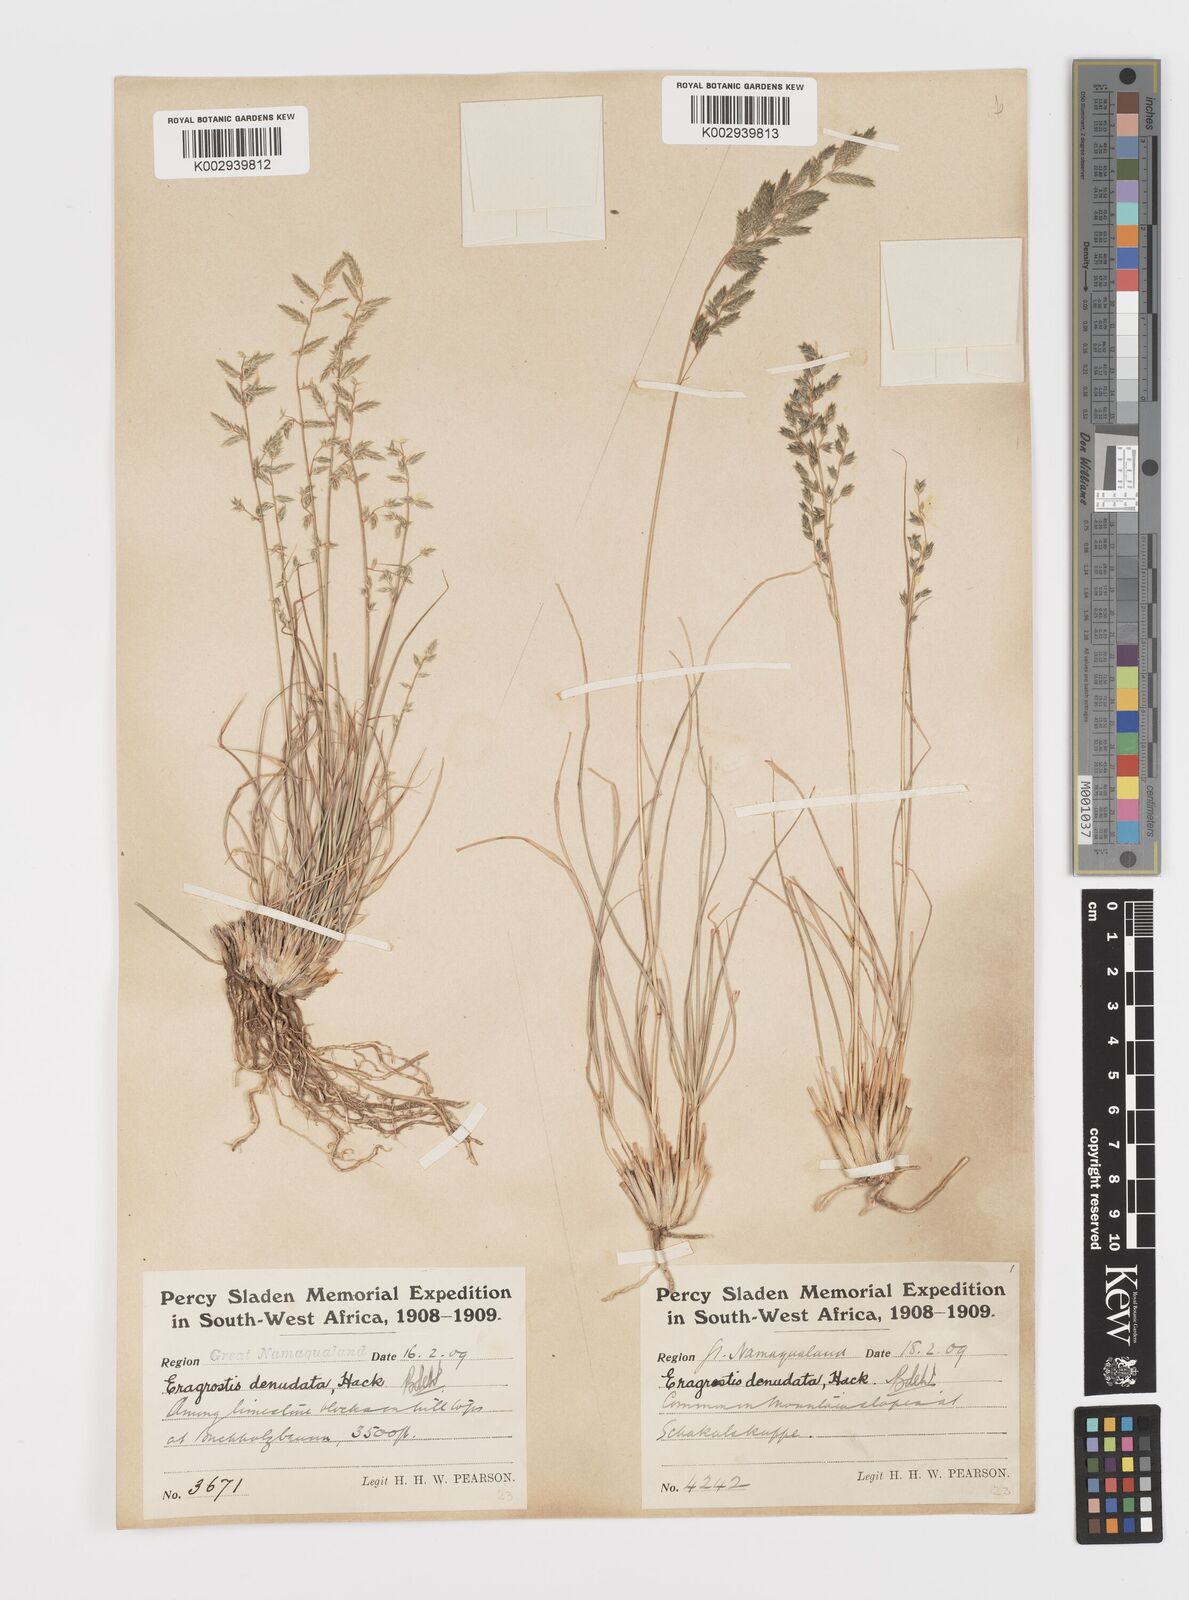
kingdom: Plantae
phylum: Tracheophyta
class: Liliopsida
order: Poales
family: Poaceae
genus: Eragrostis
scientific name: Eragrostis nindensis
